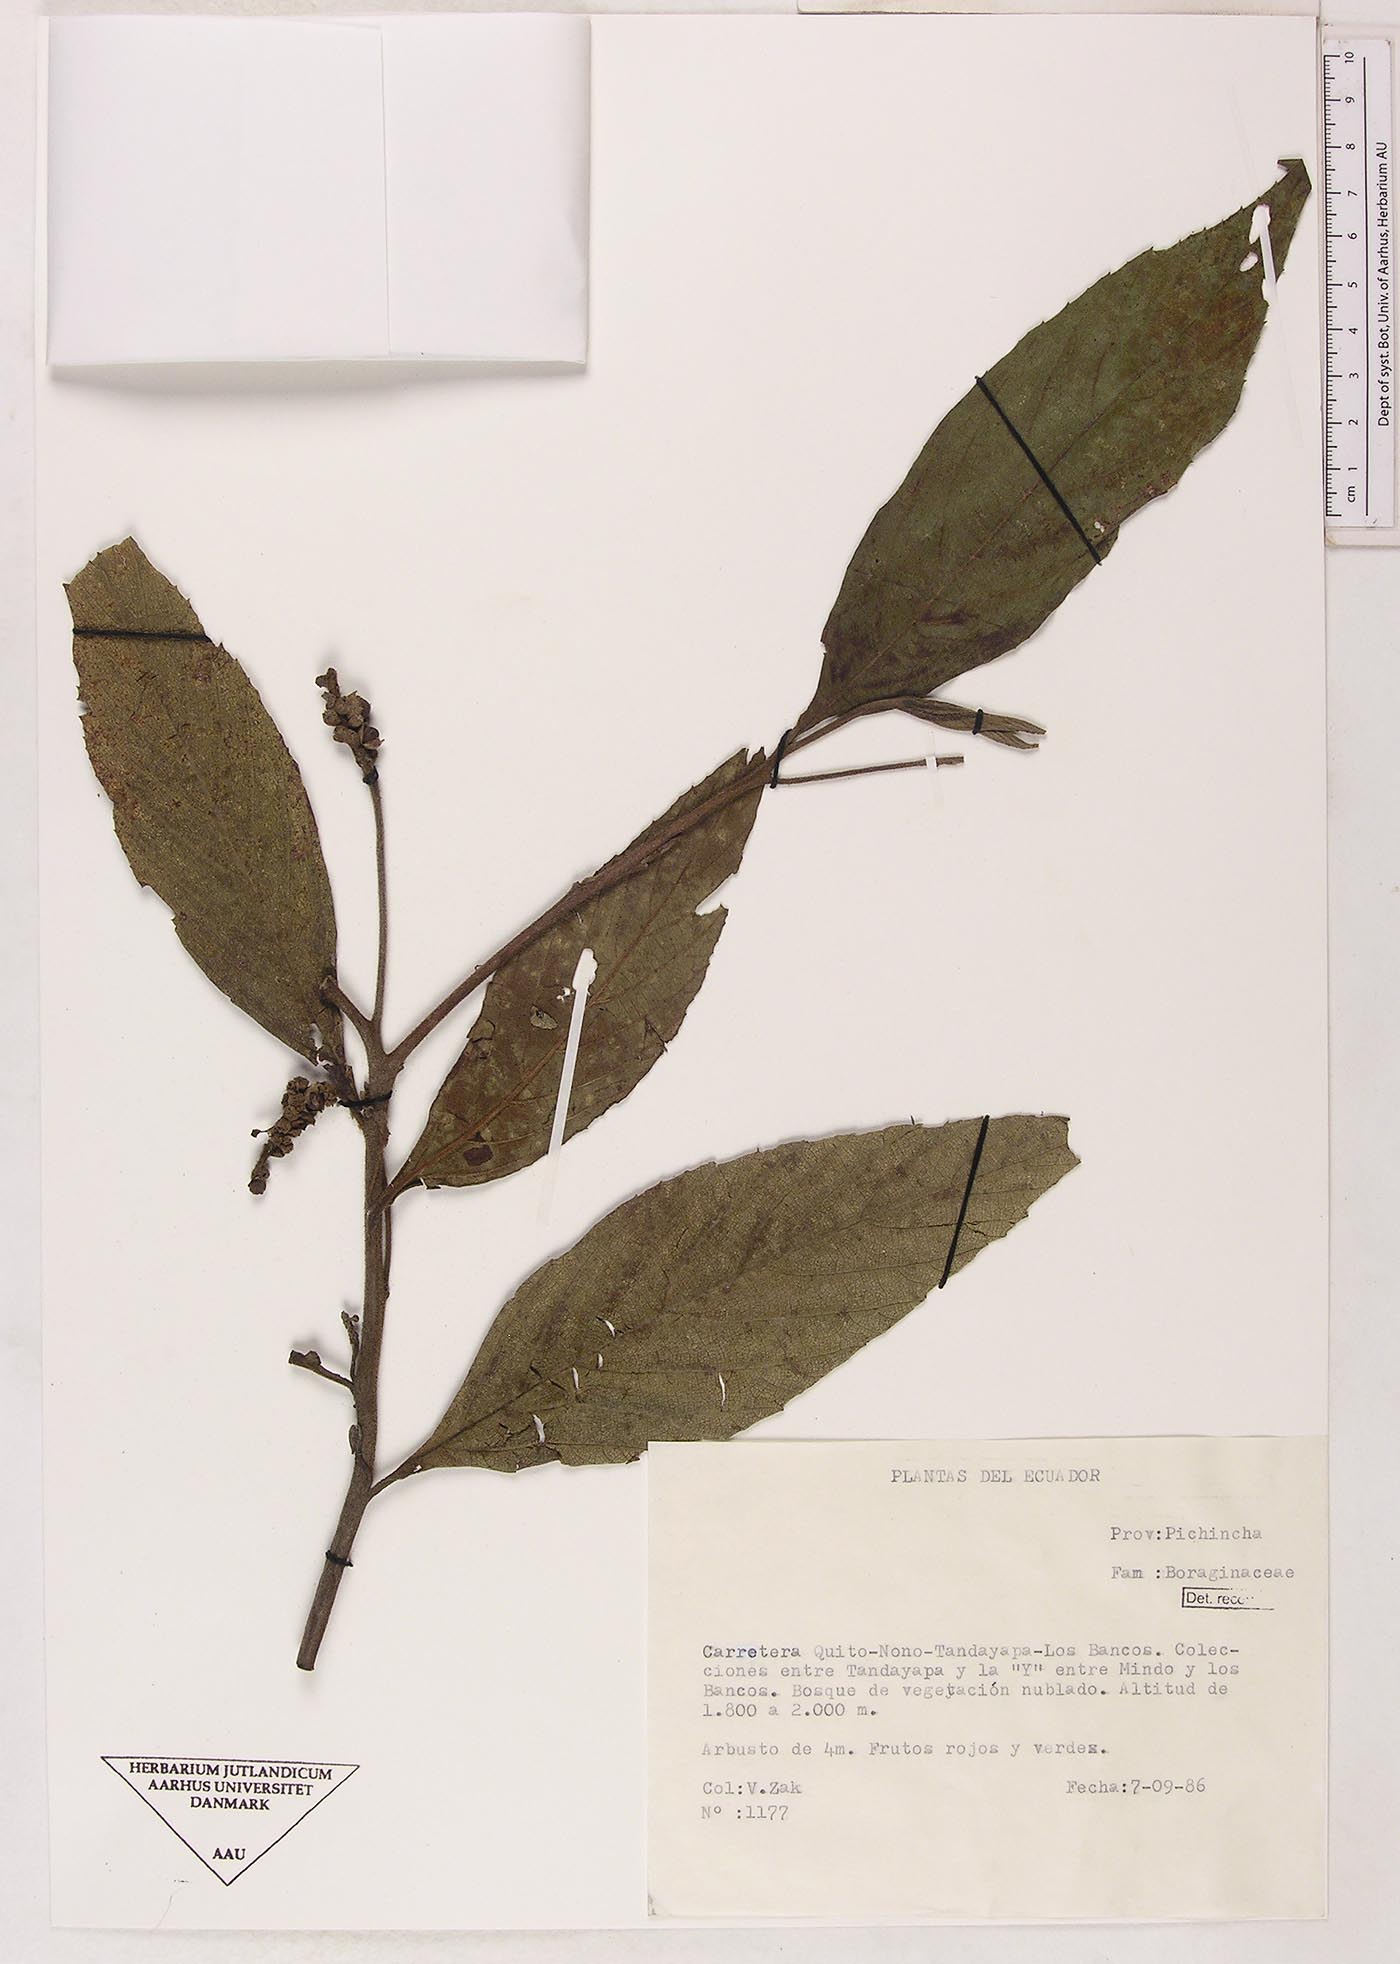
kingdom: Plantae
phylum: Tracheophyta
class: Magnoliopsida
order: Boraginales
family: Cordiaceae
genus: Cordia
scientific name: Cordia
